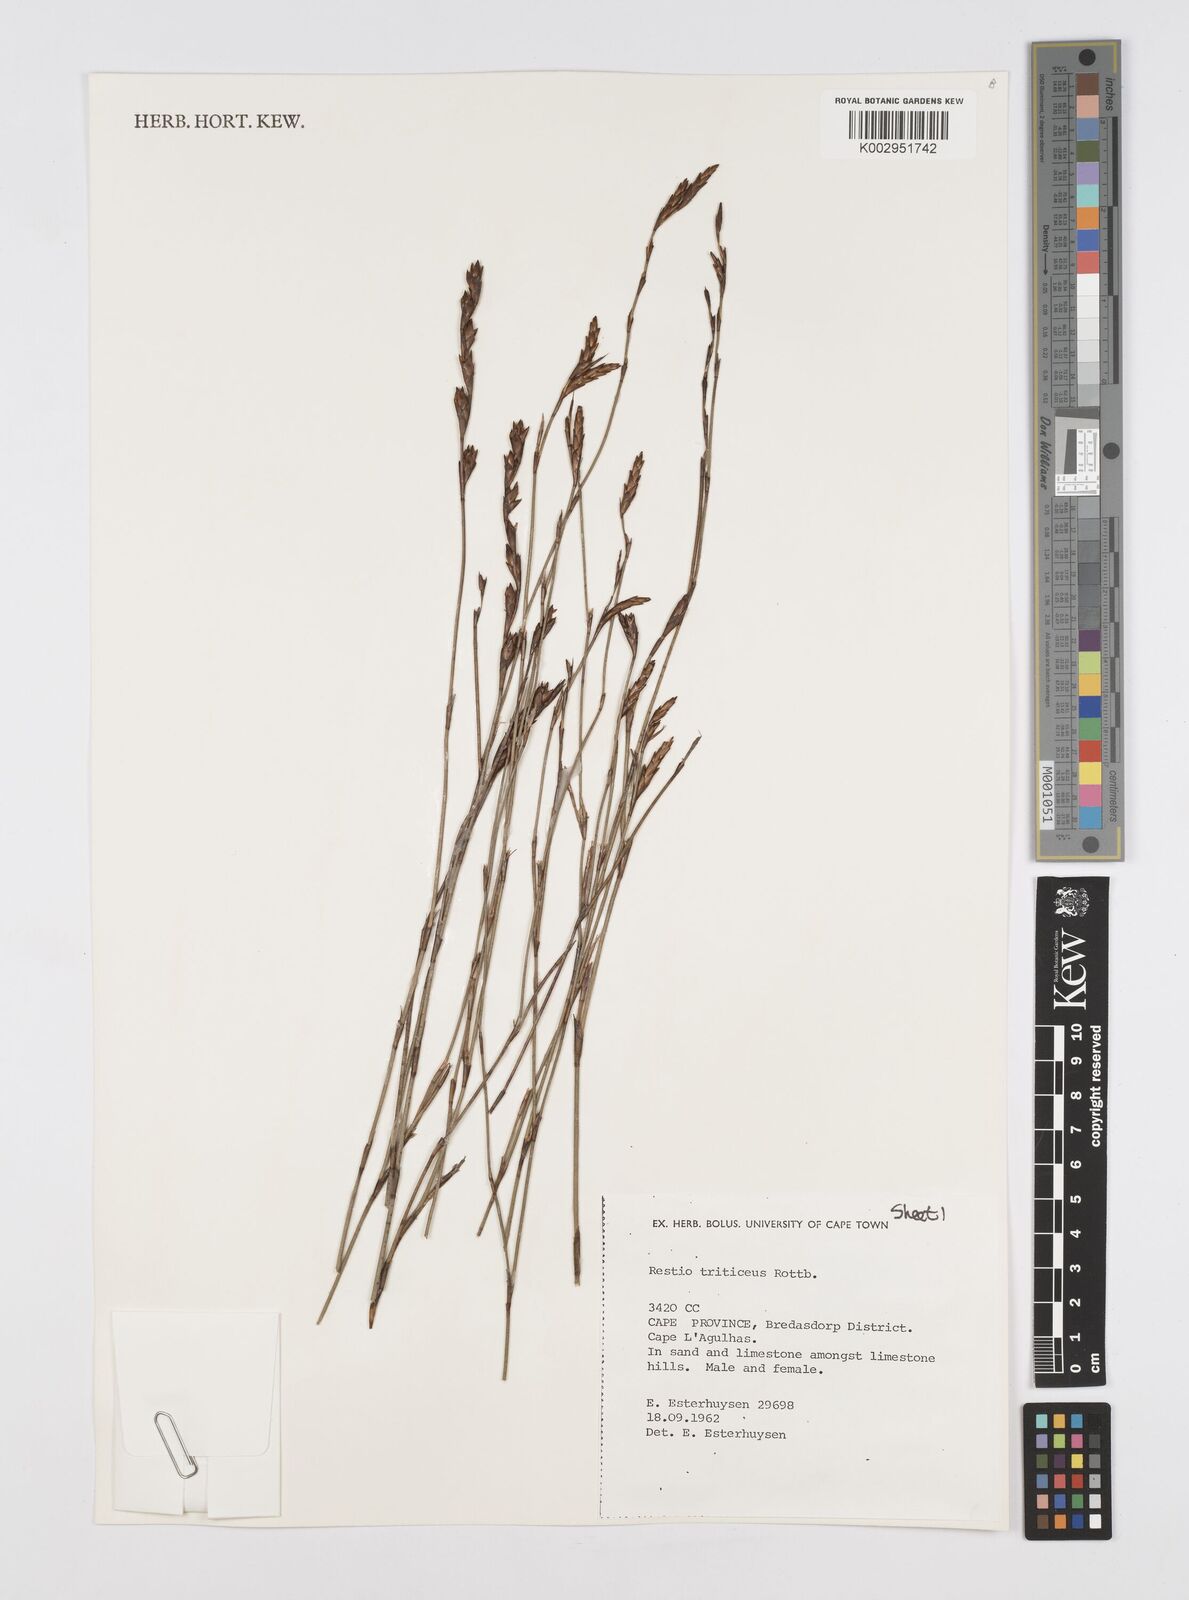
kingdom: Plantae
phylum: Tracheophyta
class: Liliopsida
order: Poales
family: Restionaceae
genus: Restio
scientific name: Restio triticeus
